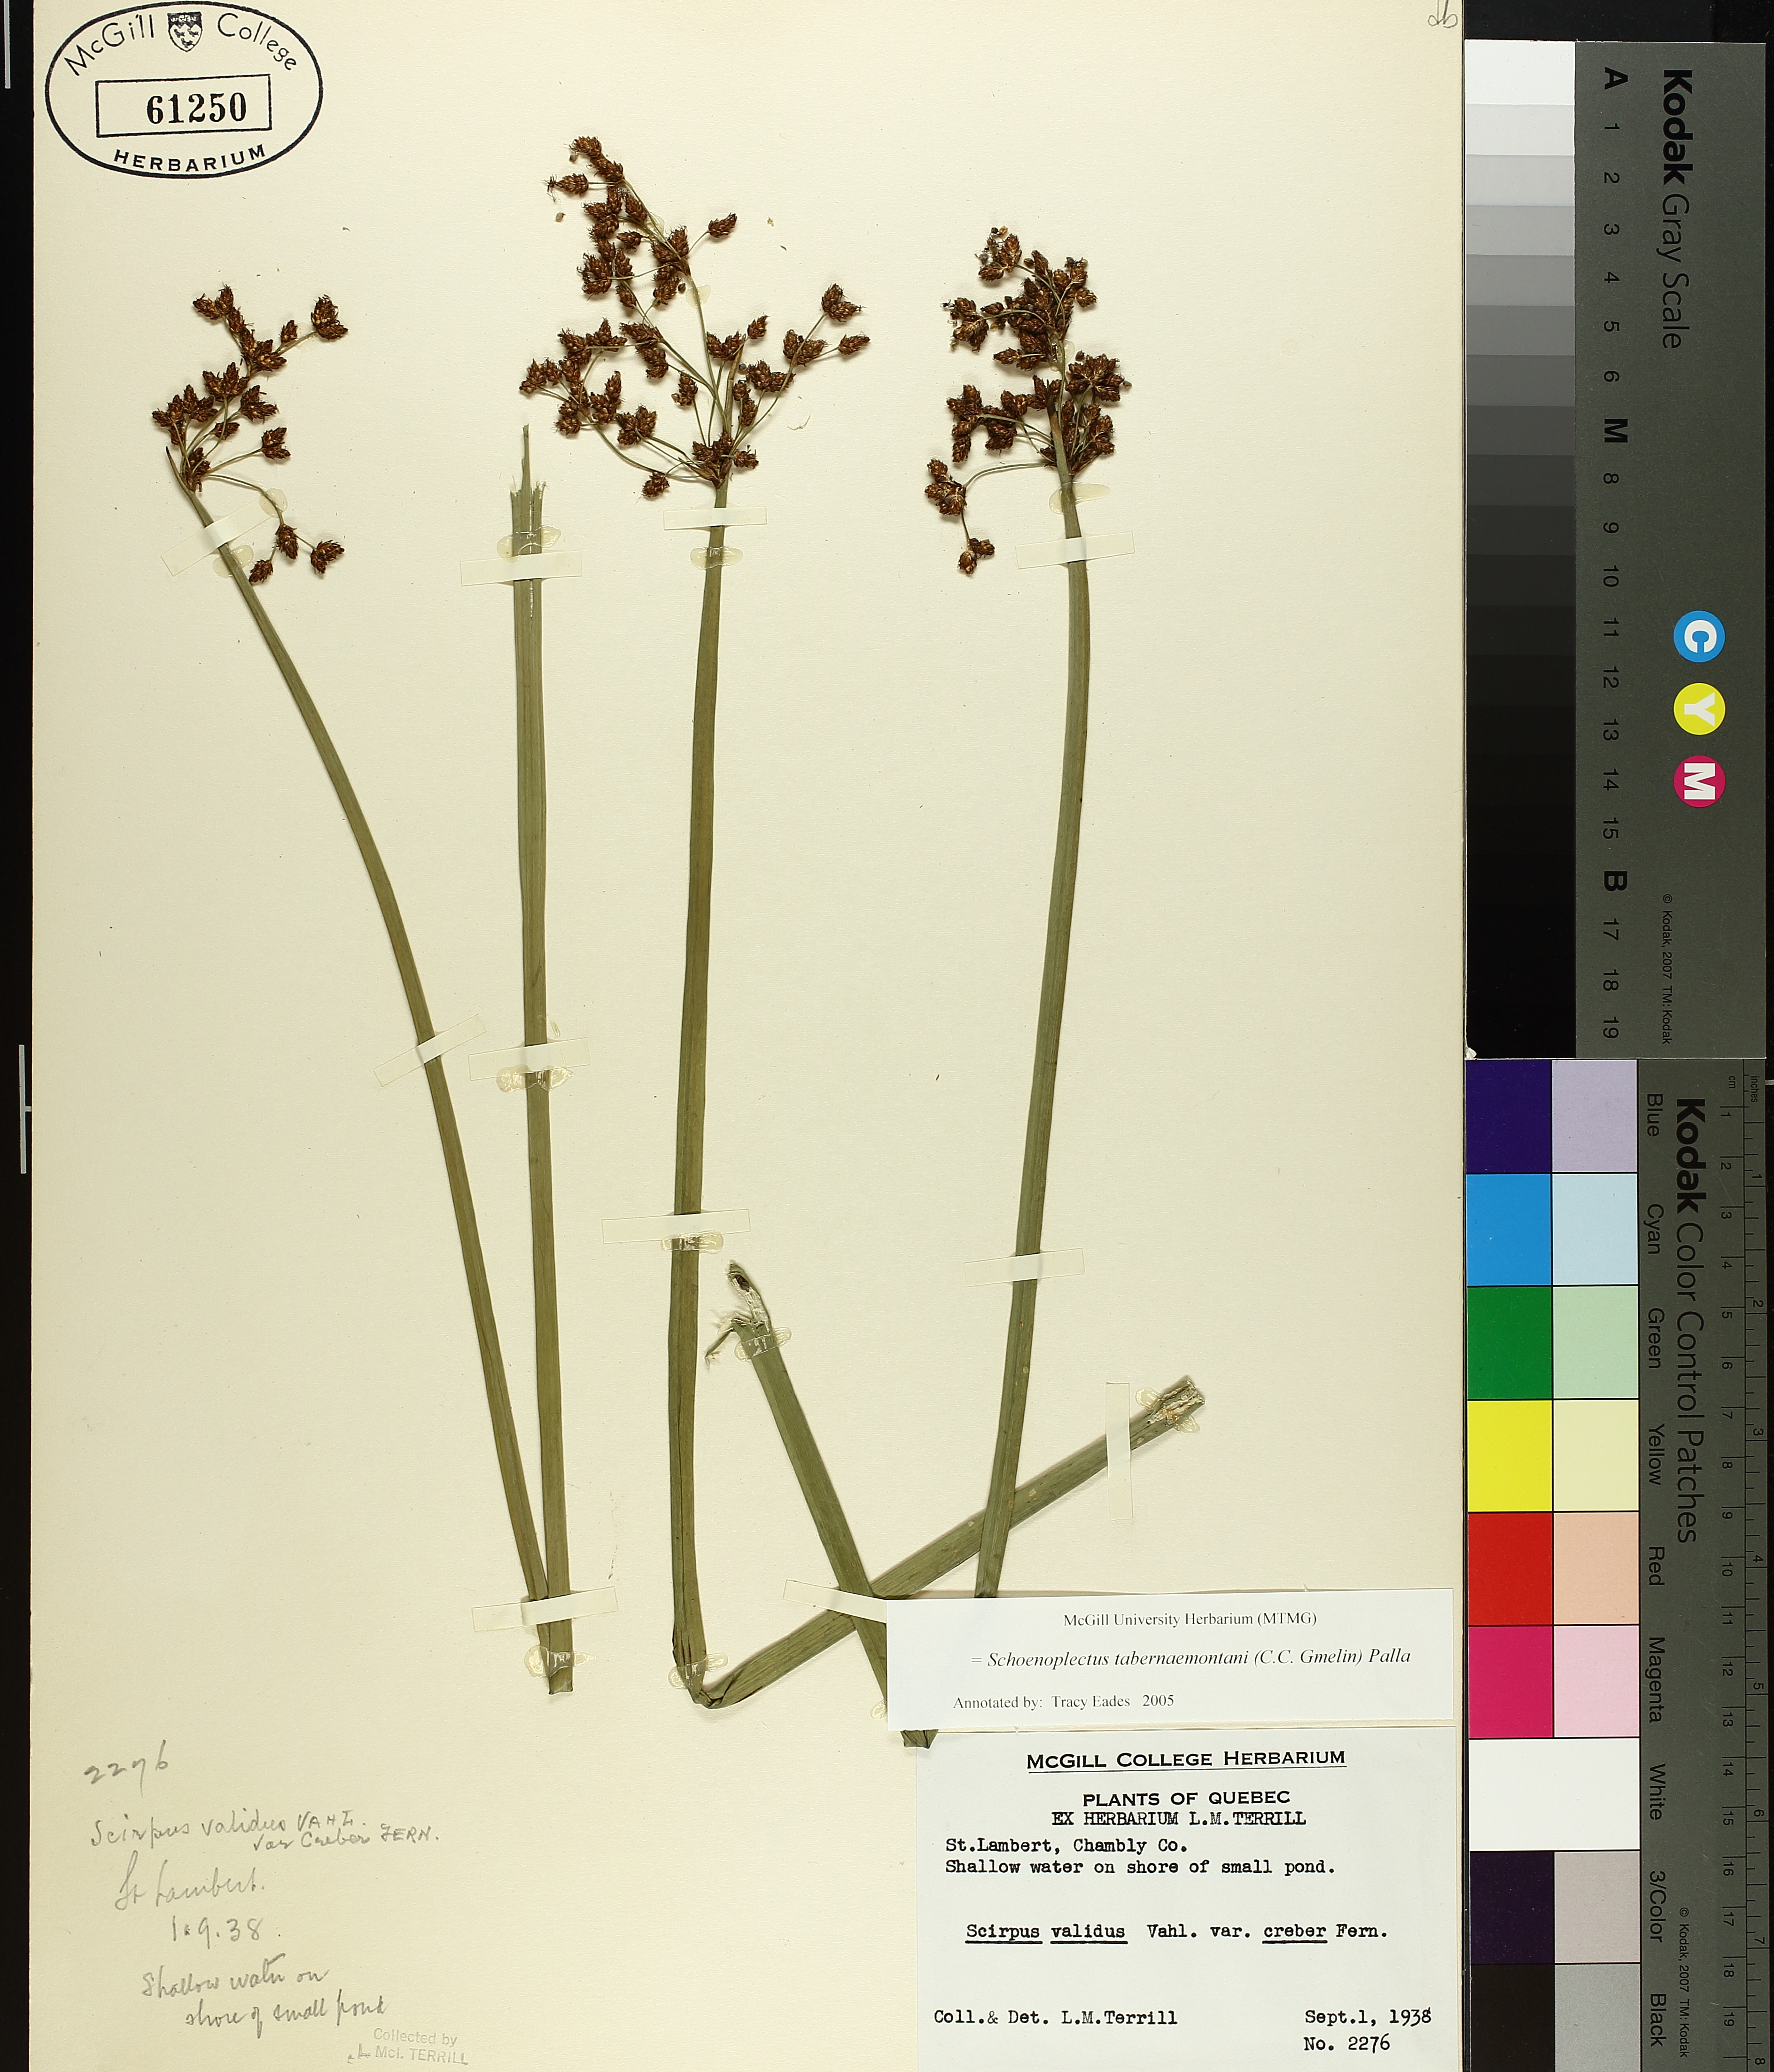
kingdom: Plantae
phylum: Tracheophyta
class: Liliopsida
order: Poales
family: Cyperaceae
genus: Schoenoplectus
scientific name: Schoenoplectus tabernaemontani
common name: Grey club-rush
